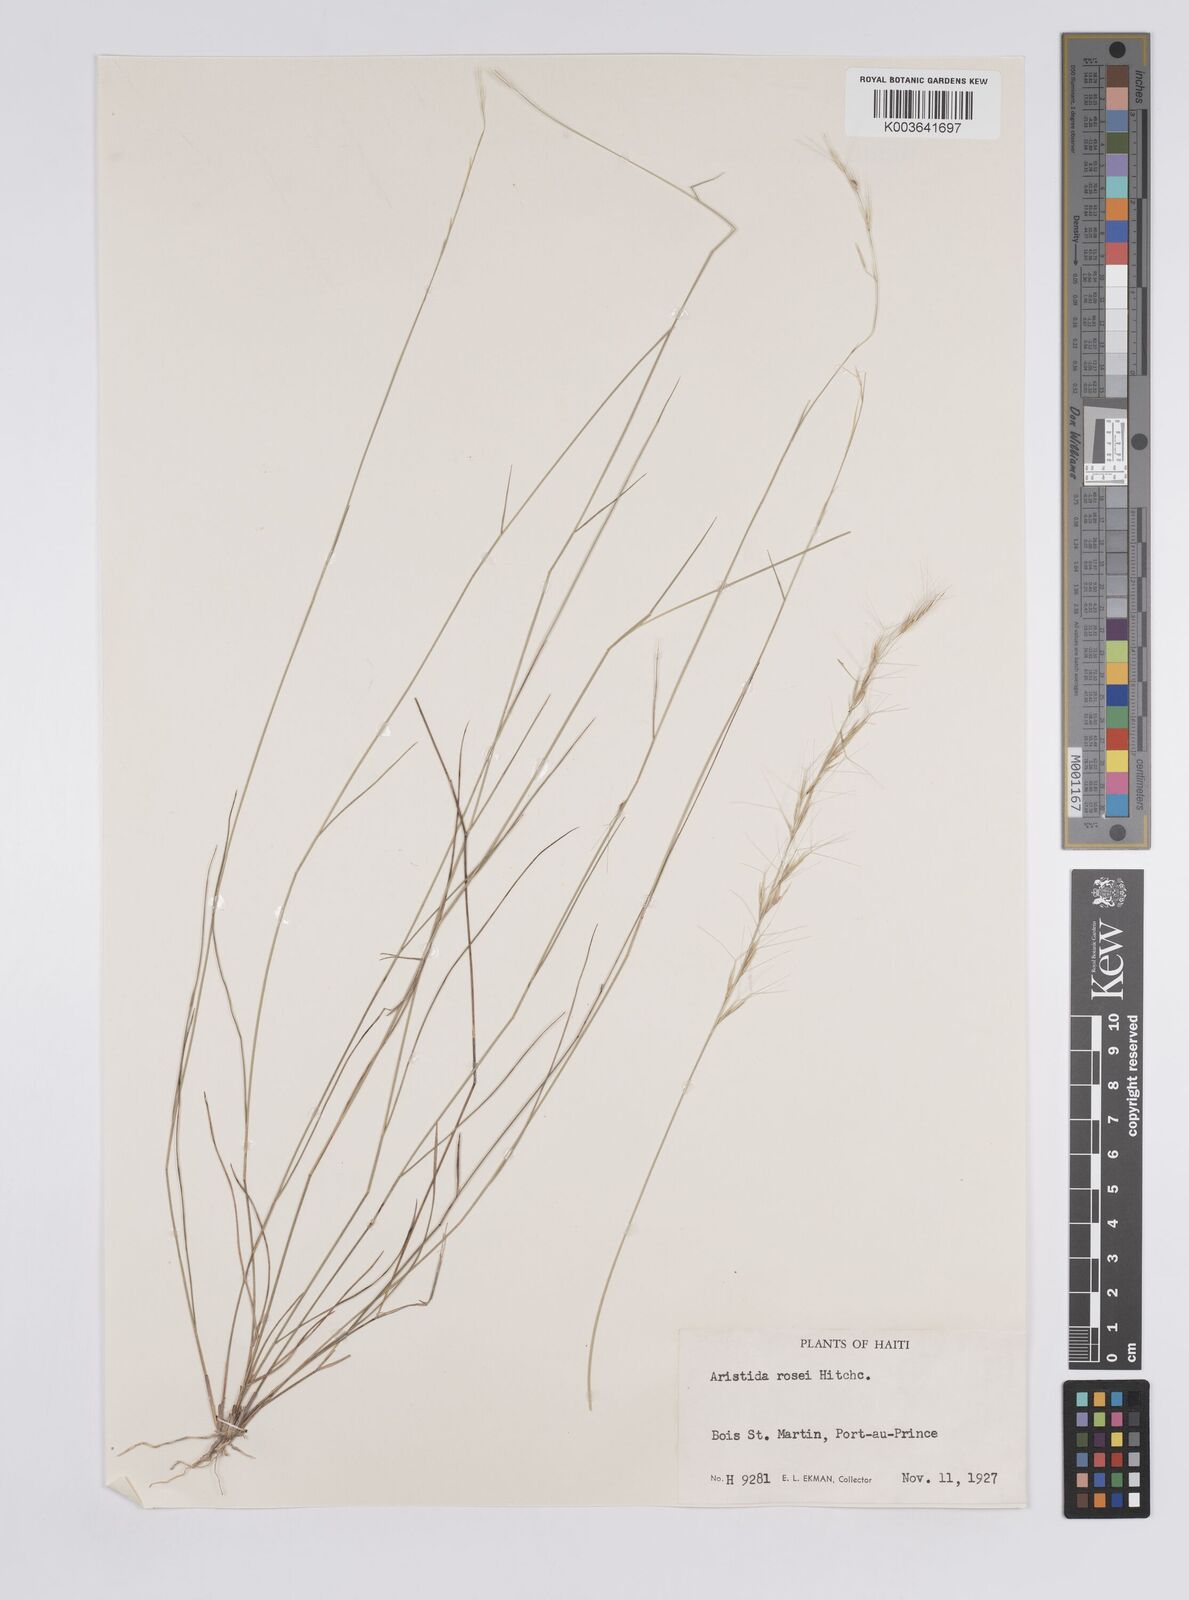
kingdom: Plantae
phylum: Tracheophyta
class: Liliopsida
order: Poales
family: Poaceae
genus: Aristida
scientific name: Aristida rosei
